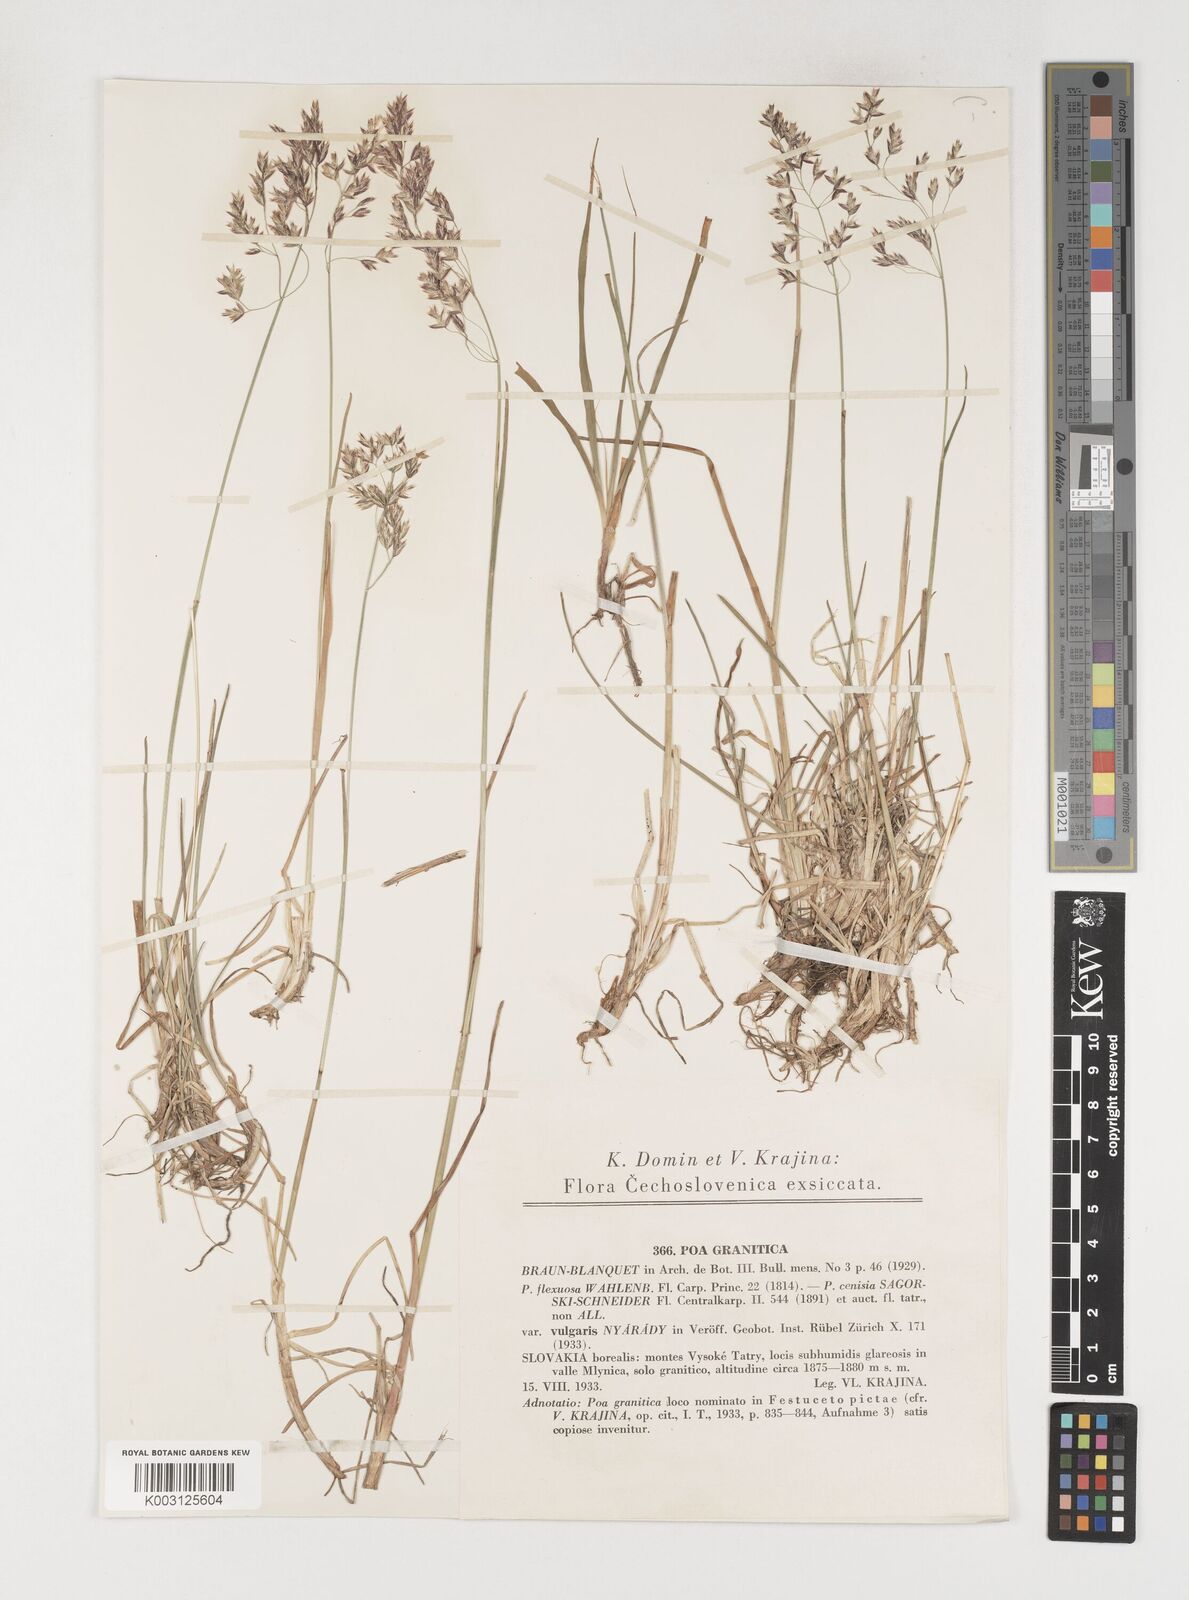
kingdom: Plantae
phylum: Tracheophyta
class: Liliopsida
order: Poales
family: Poaceae
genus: Poa
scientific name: Poa granitica
